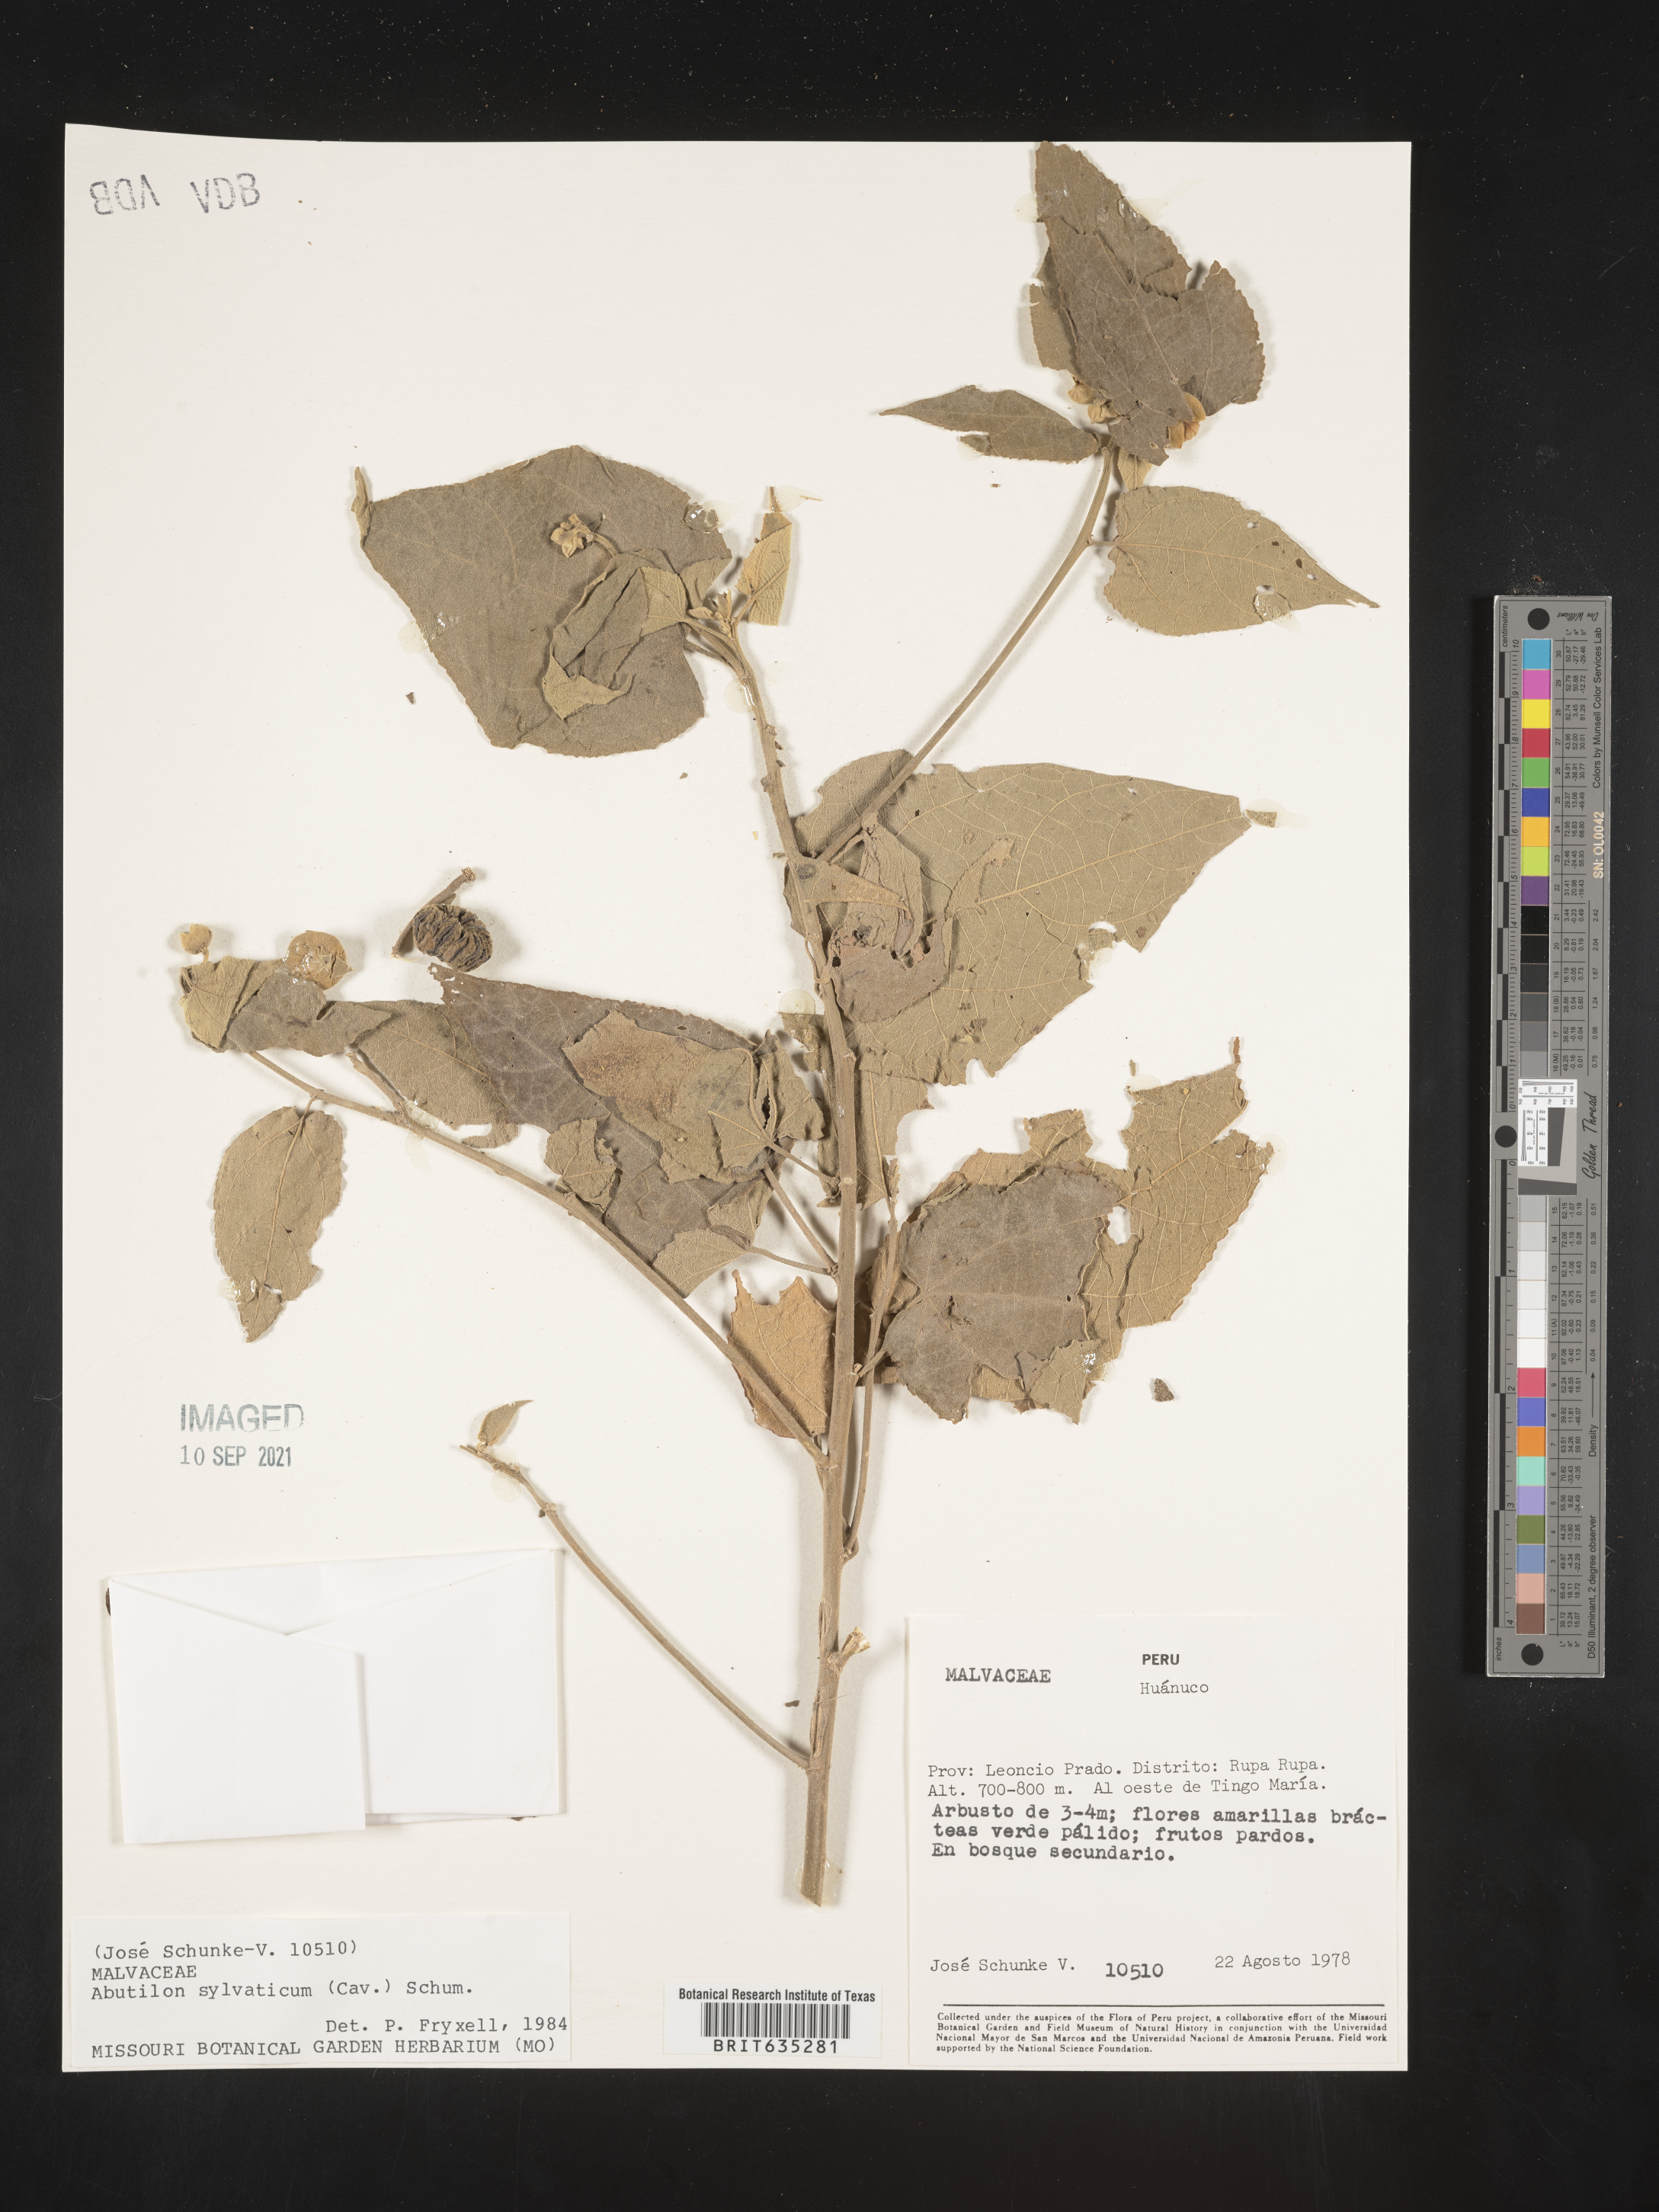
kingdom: Plantae
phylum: Tracheophyta
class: Magnoliopsida
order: Malvales
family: Malvaceae
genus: Abutilon
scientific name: Abutilon
